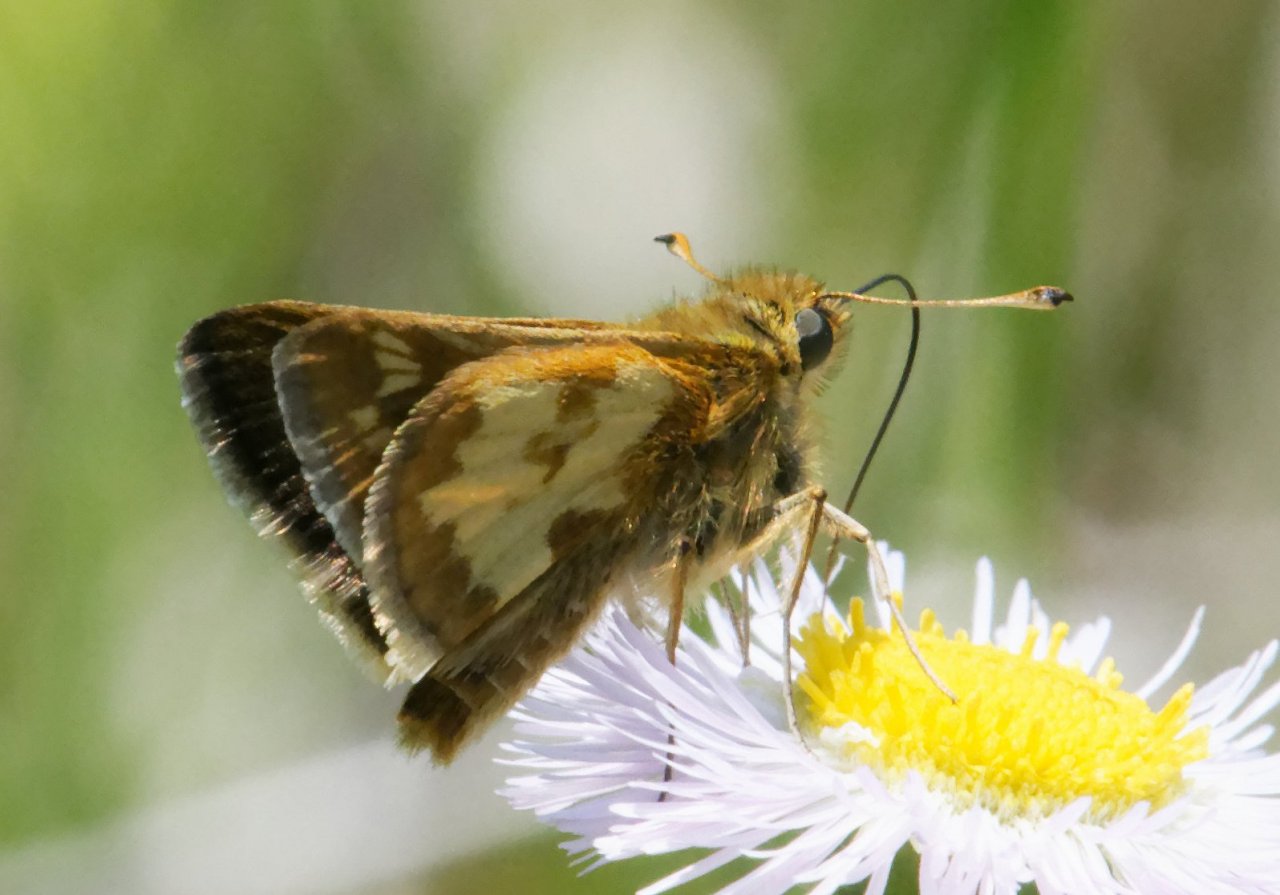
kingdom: Animalia
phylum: Arthropoda
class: Insecta
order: Lepidoptera
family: Hesperiidae
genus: Polites
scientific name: Polites coras
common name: Peck's Skipper
